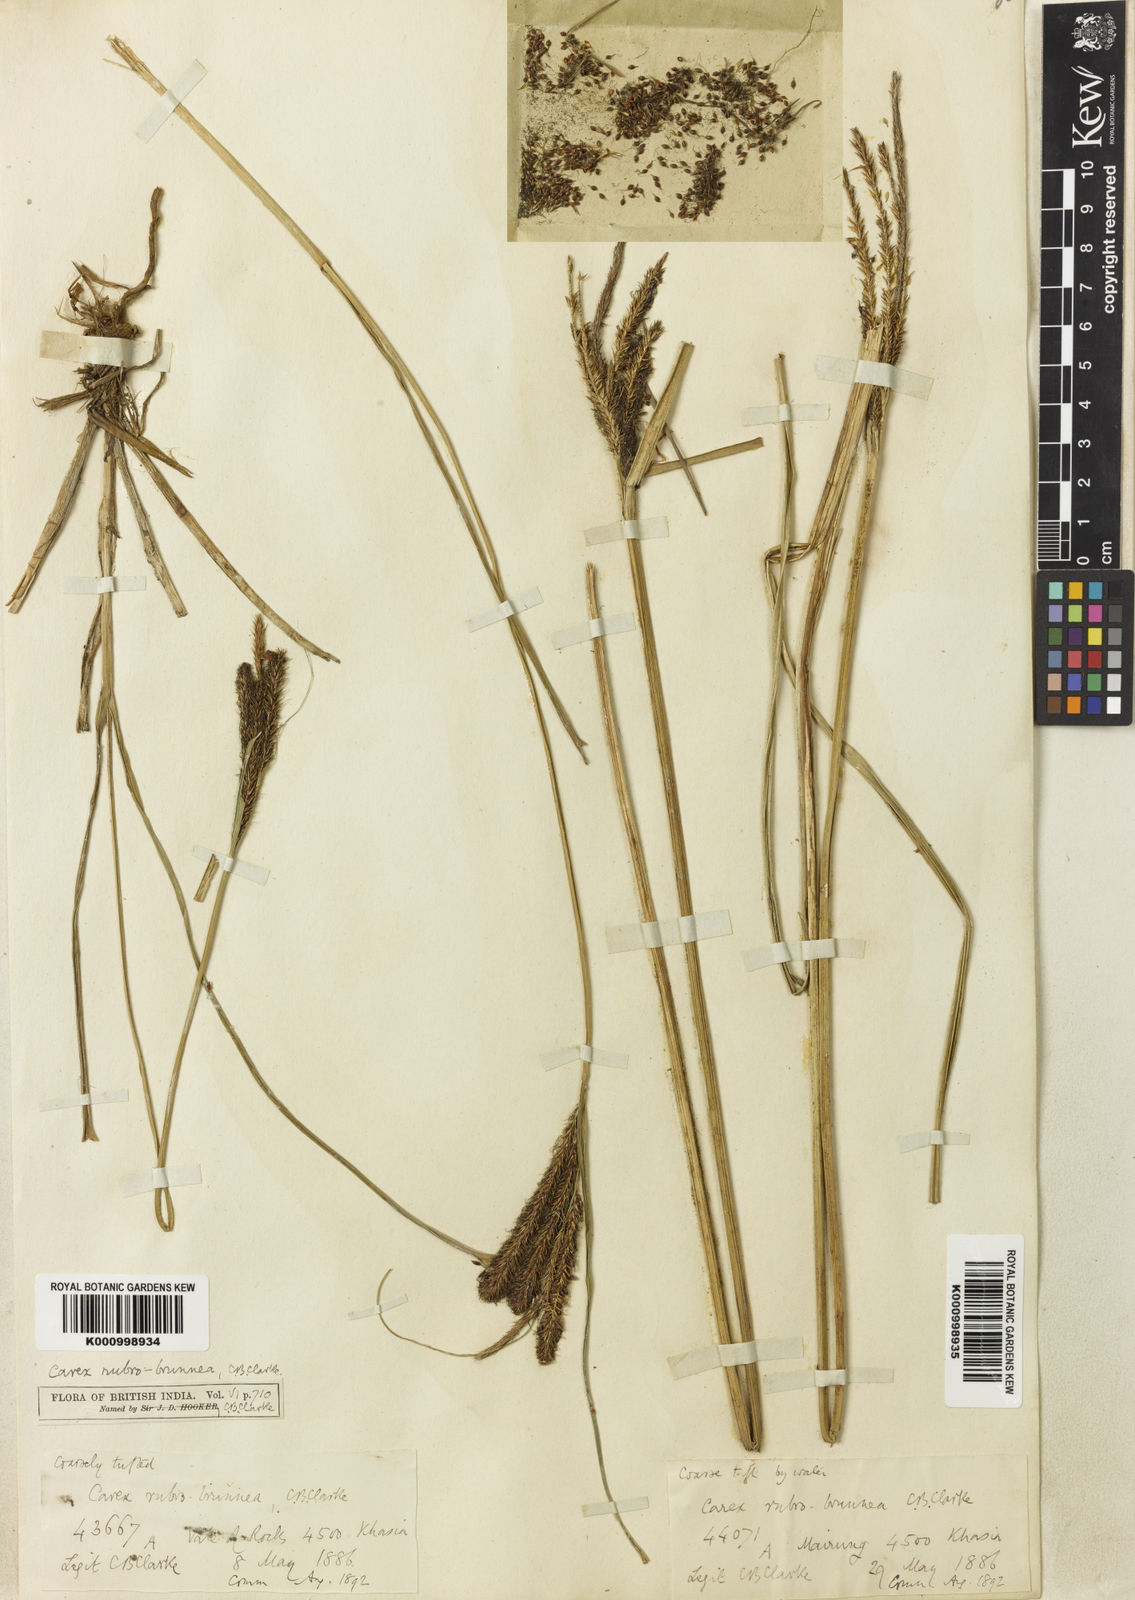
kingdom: Plantae
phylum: Tracheophyta
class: Liliopsida
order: Poales
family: Cyperaceae
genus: Carex
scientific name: Carex rubrobrunnea
